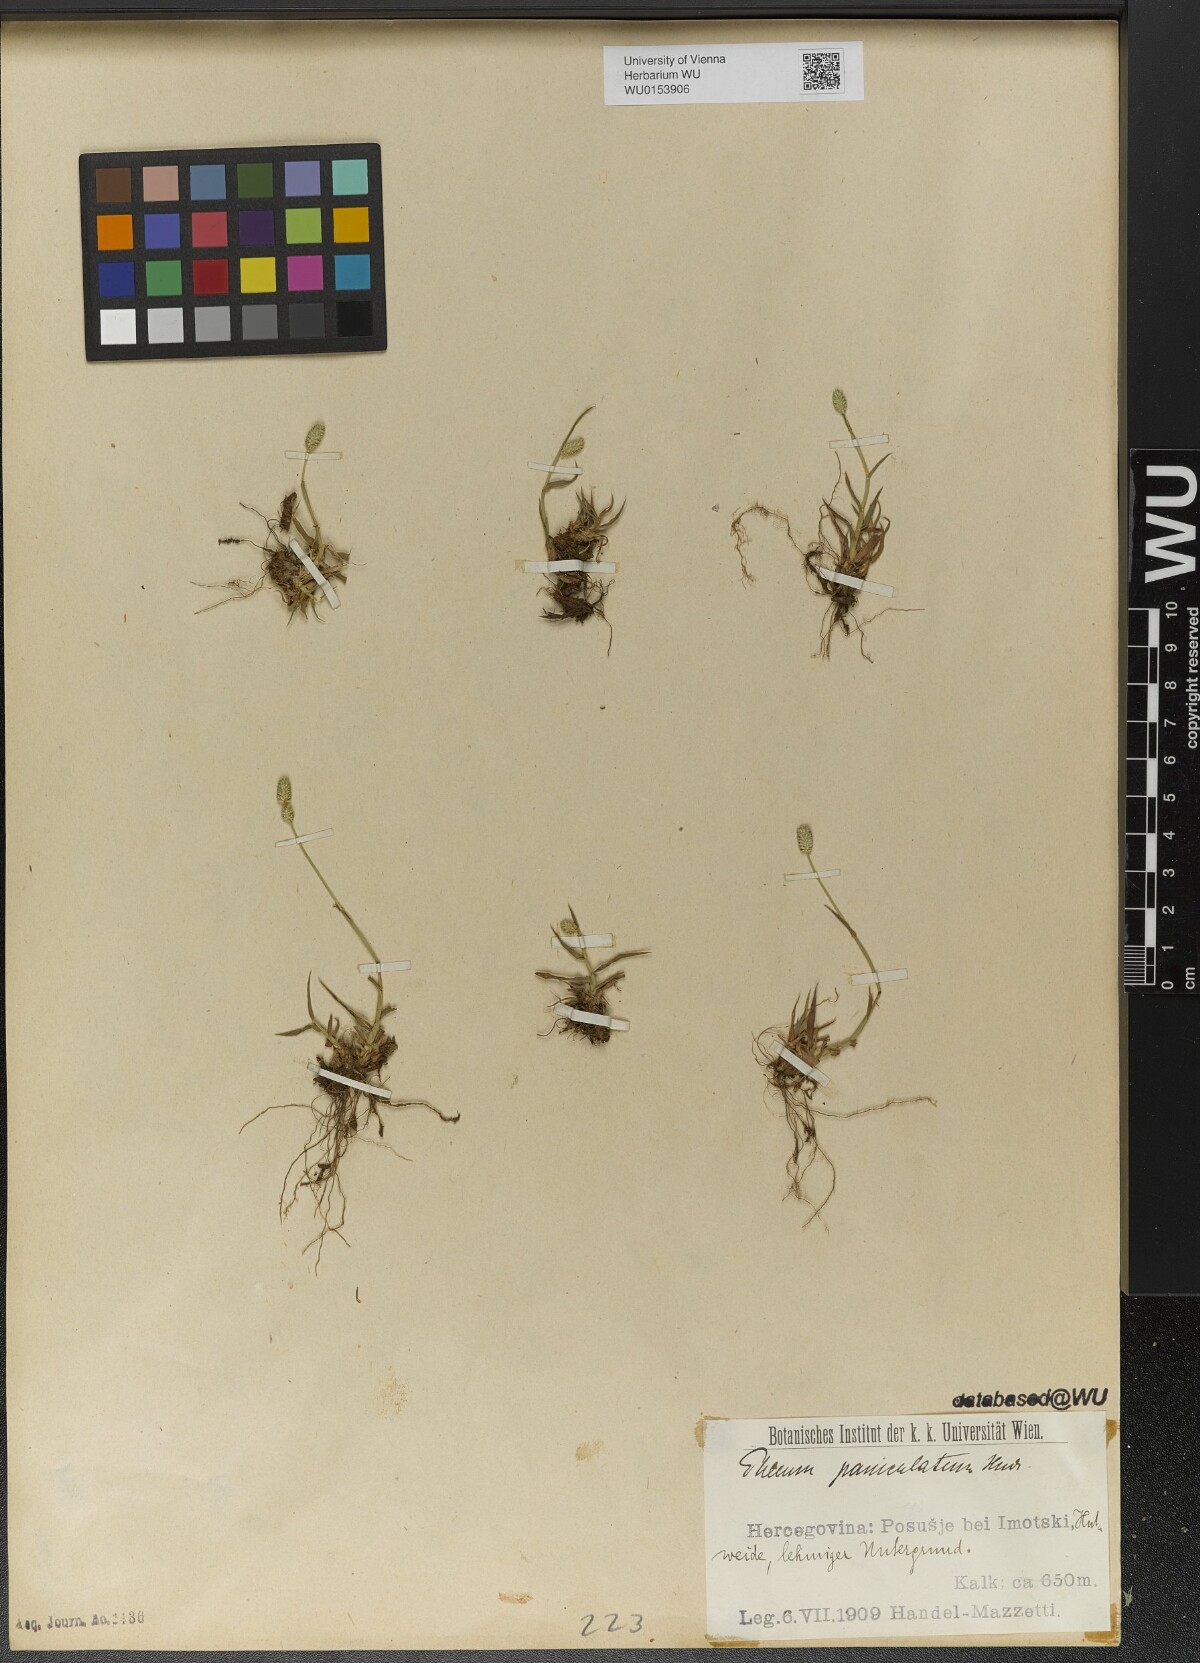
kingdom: Plantae
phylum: Tracheophyta
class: Liliopsida
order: Poales
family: Poaceae
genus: Phleum
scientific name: Phleum paniculatum
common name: British timothy
